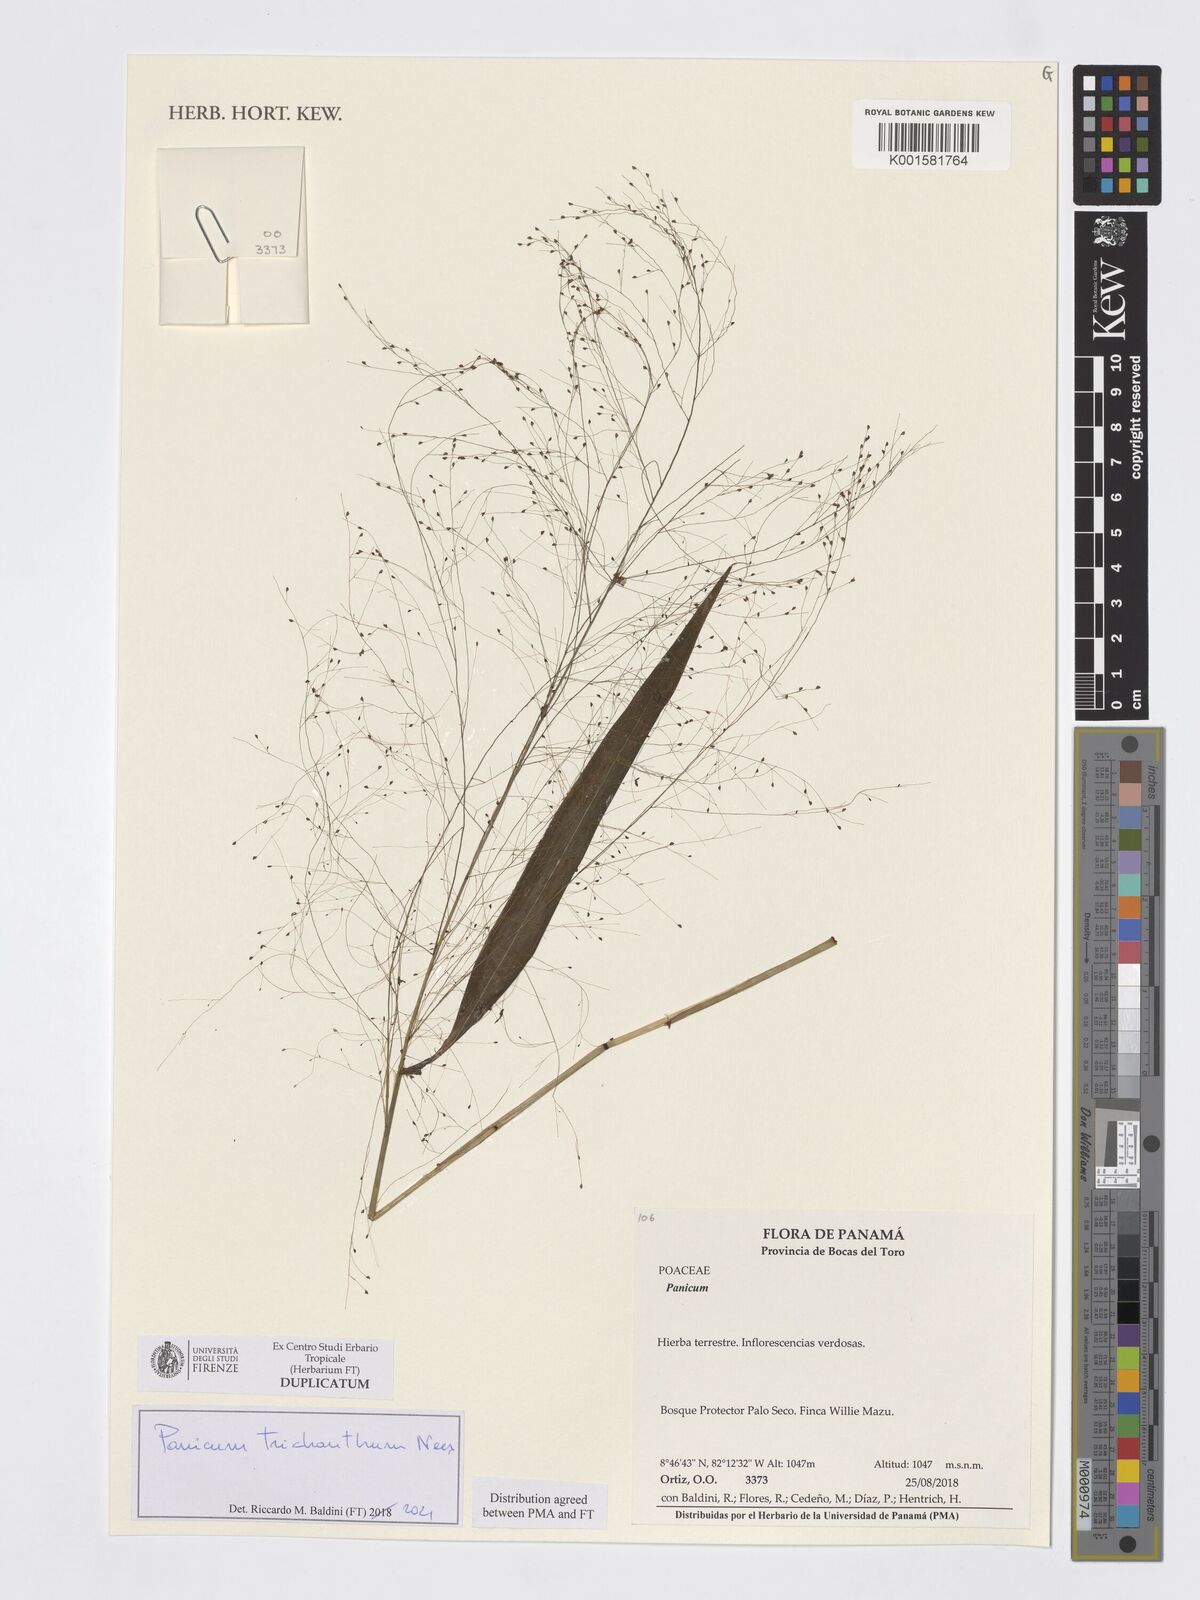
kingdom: Plantae
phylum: Tracheophyta
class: Liliopsida
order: Poales
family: Poaceae
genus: Panicum
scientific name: Panicum trichanthum
